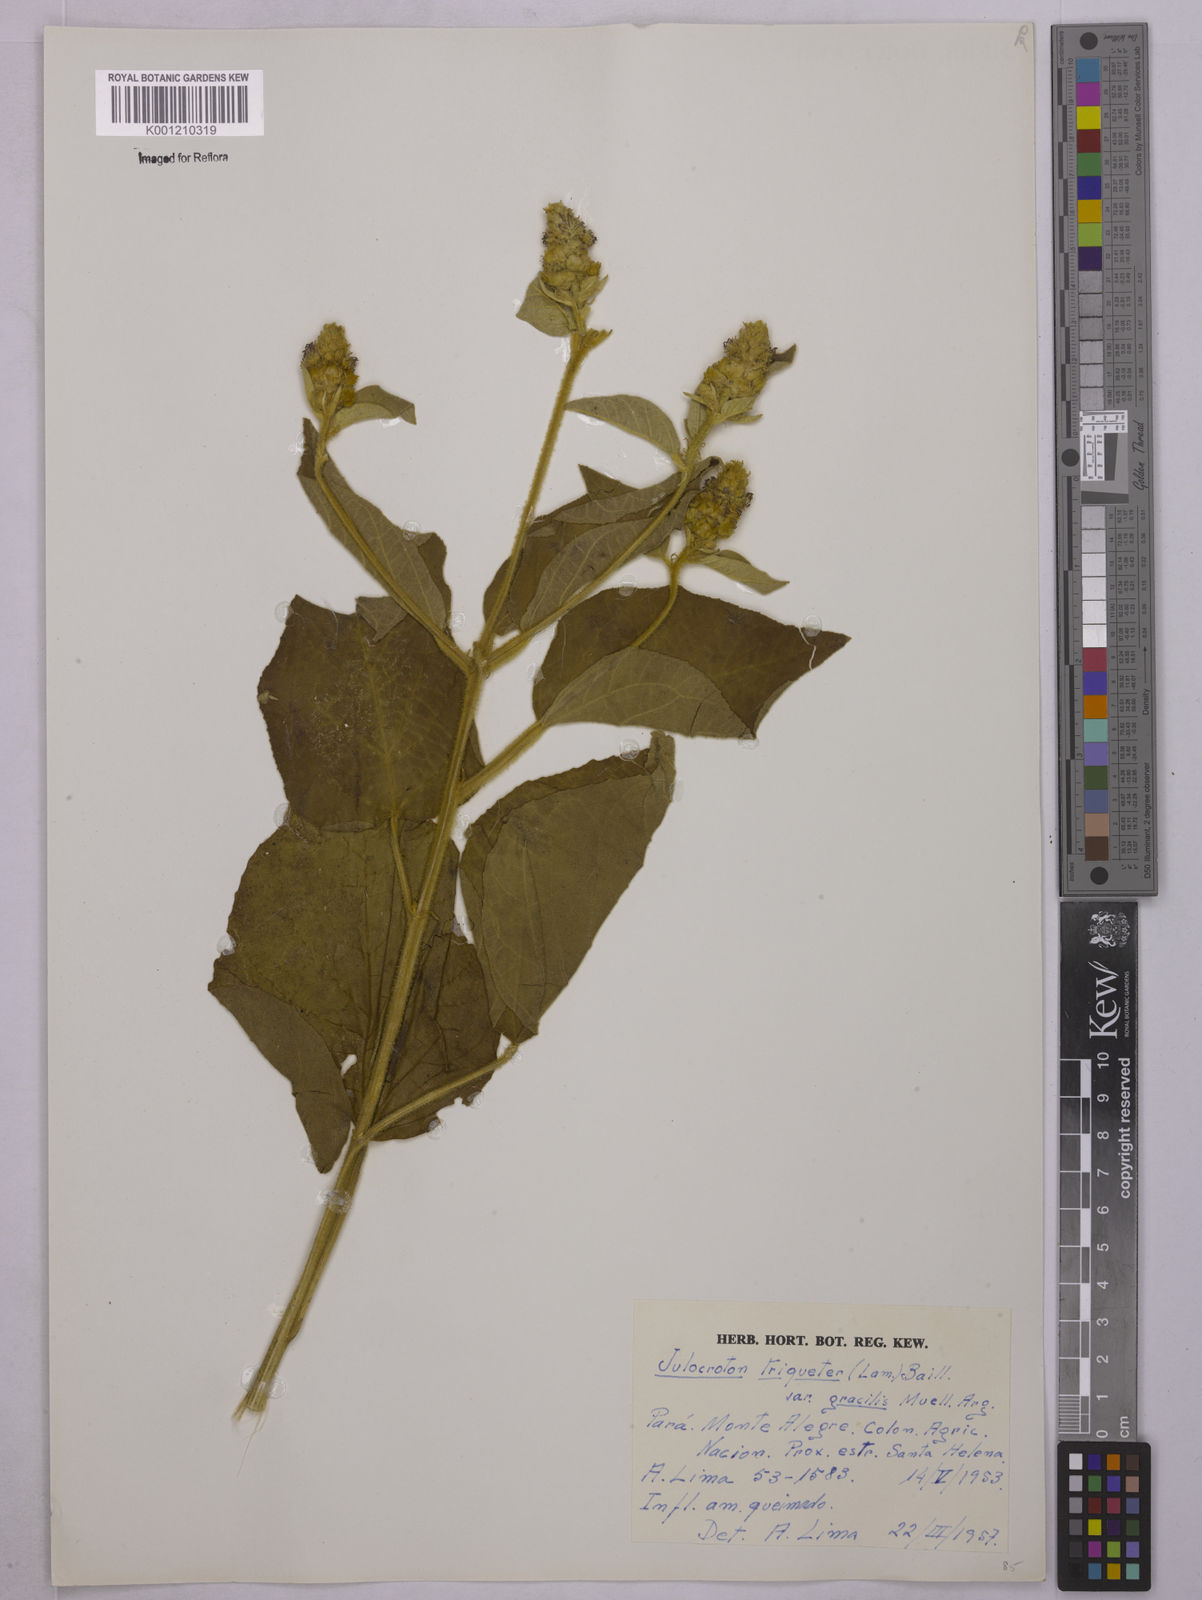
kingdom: Plantae
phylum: Tracheophyta
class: Magnoliopsida
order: Malpighiales
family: Euphorbiaceae
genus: Croton
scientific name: Croton triqueter
